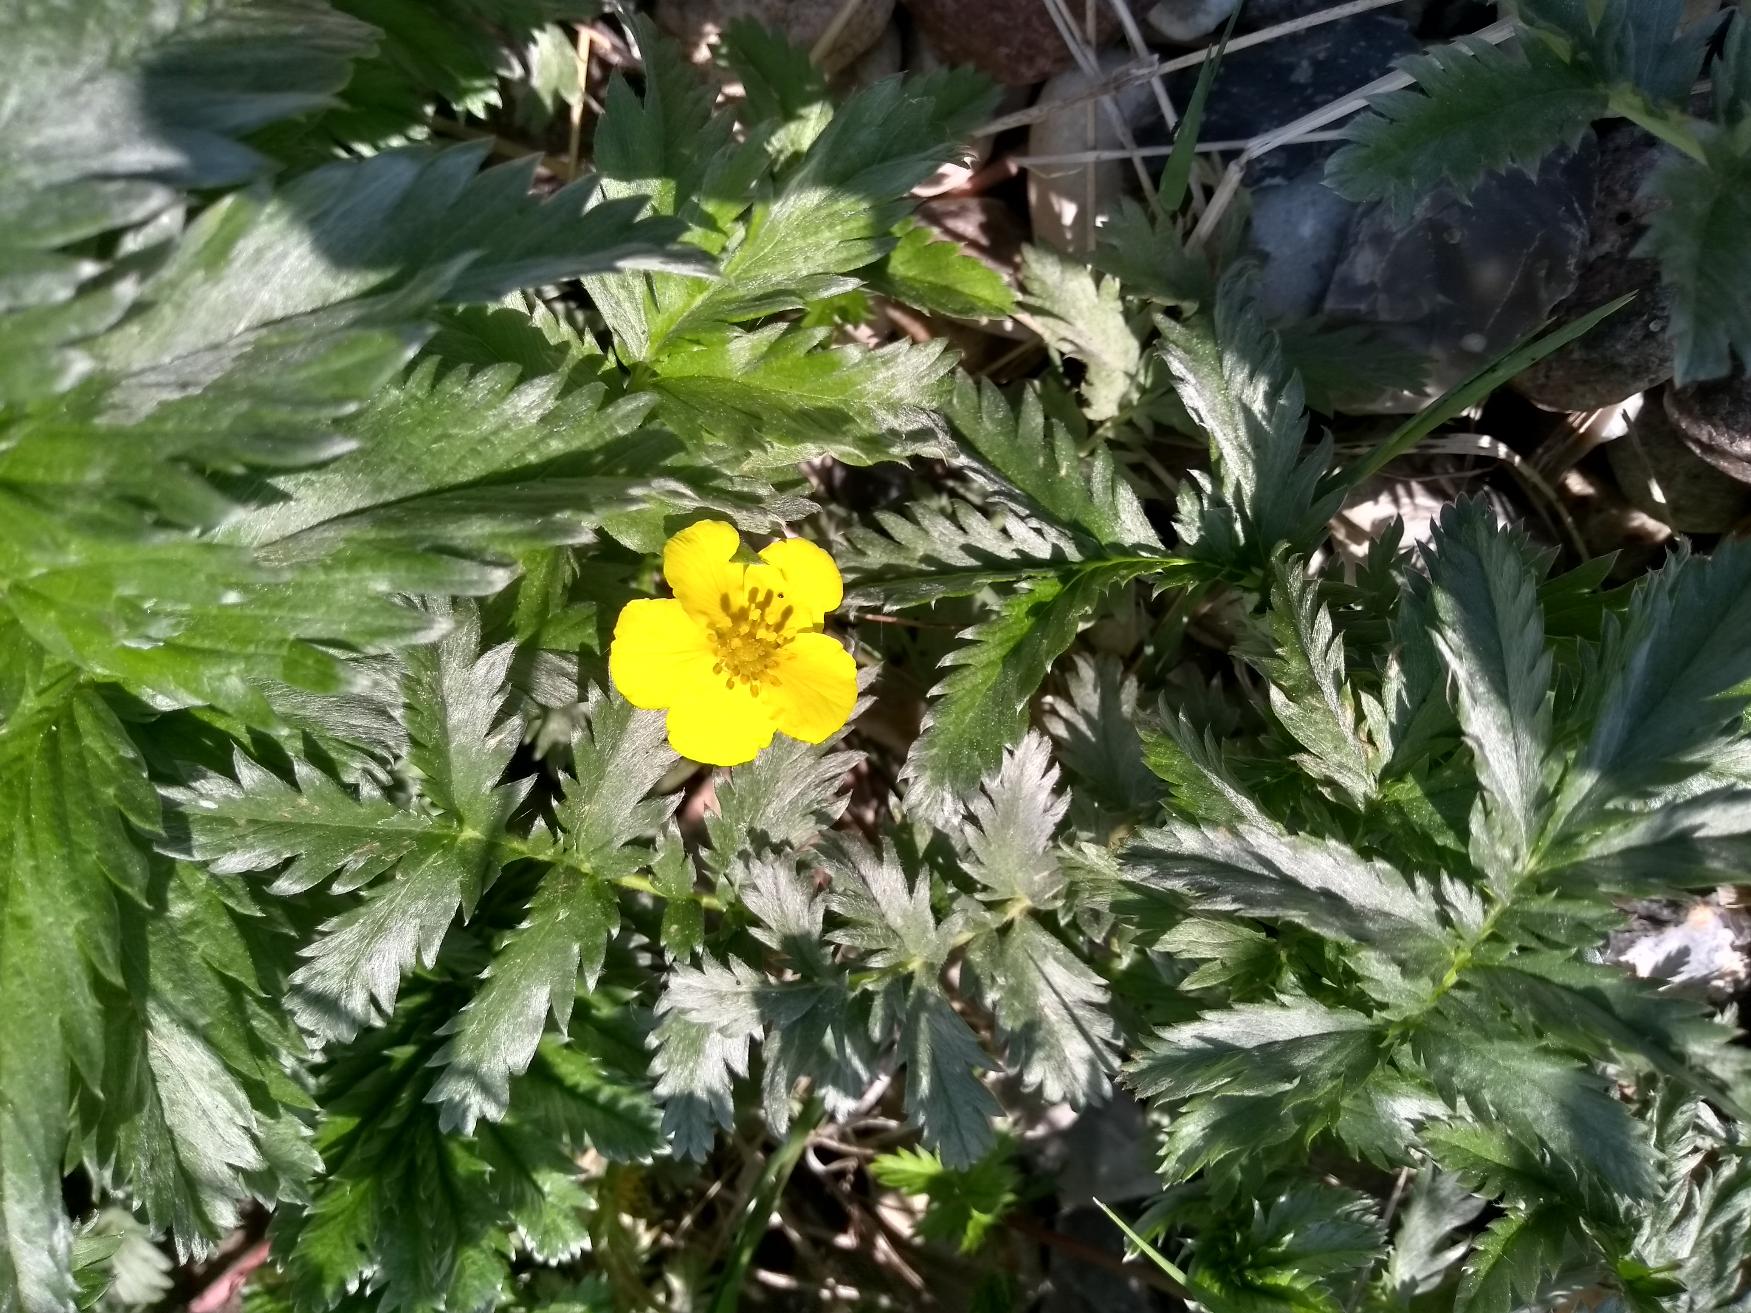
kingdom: Plantae
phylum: Tracheophyta
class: Magnoliopsida
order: Rosales
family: Rosaceae
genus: Argentina
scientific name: Argentina anserina
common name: Gåsepotentil
